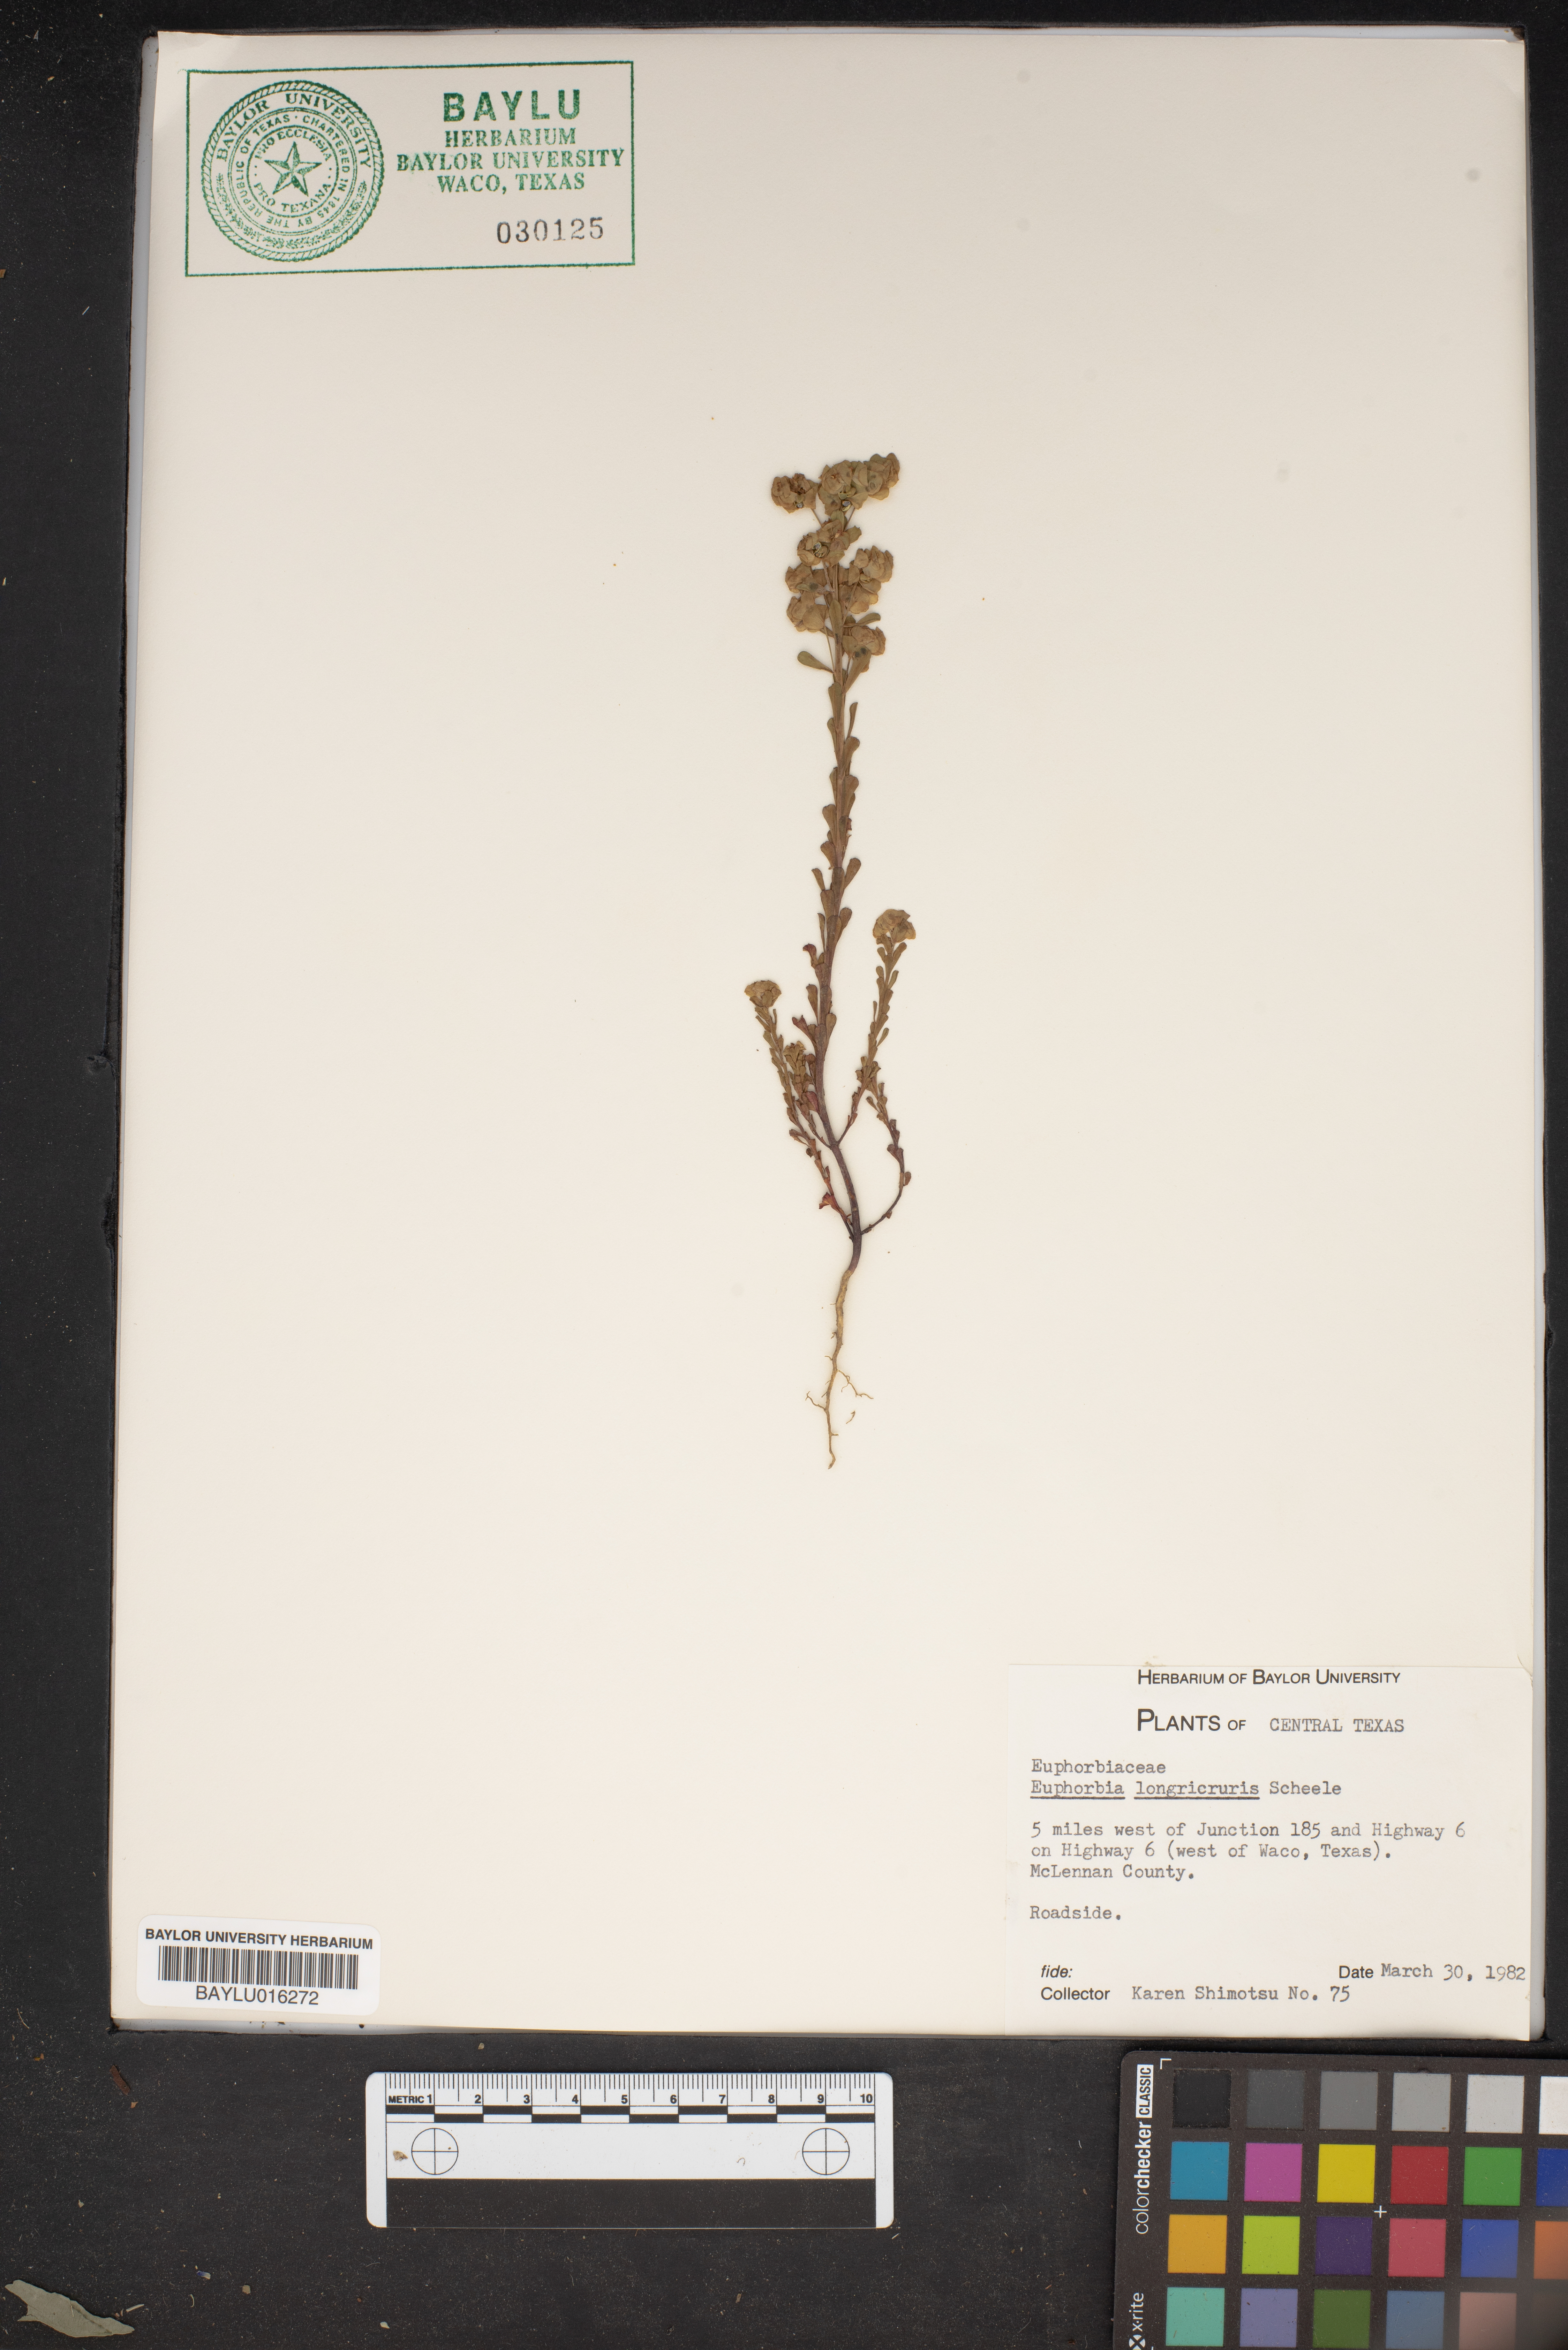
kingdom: Plantae
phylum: Tracheophyta
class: Magnoliopsida
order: Malpighiales
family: Euphorbiaceae
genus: Euphorbia
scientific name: Euphorbia longicruris
